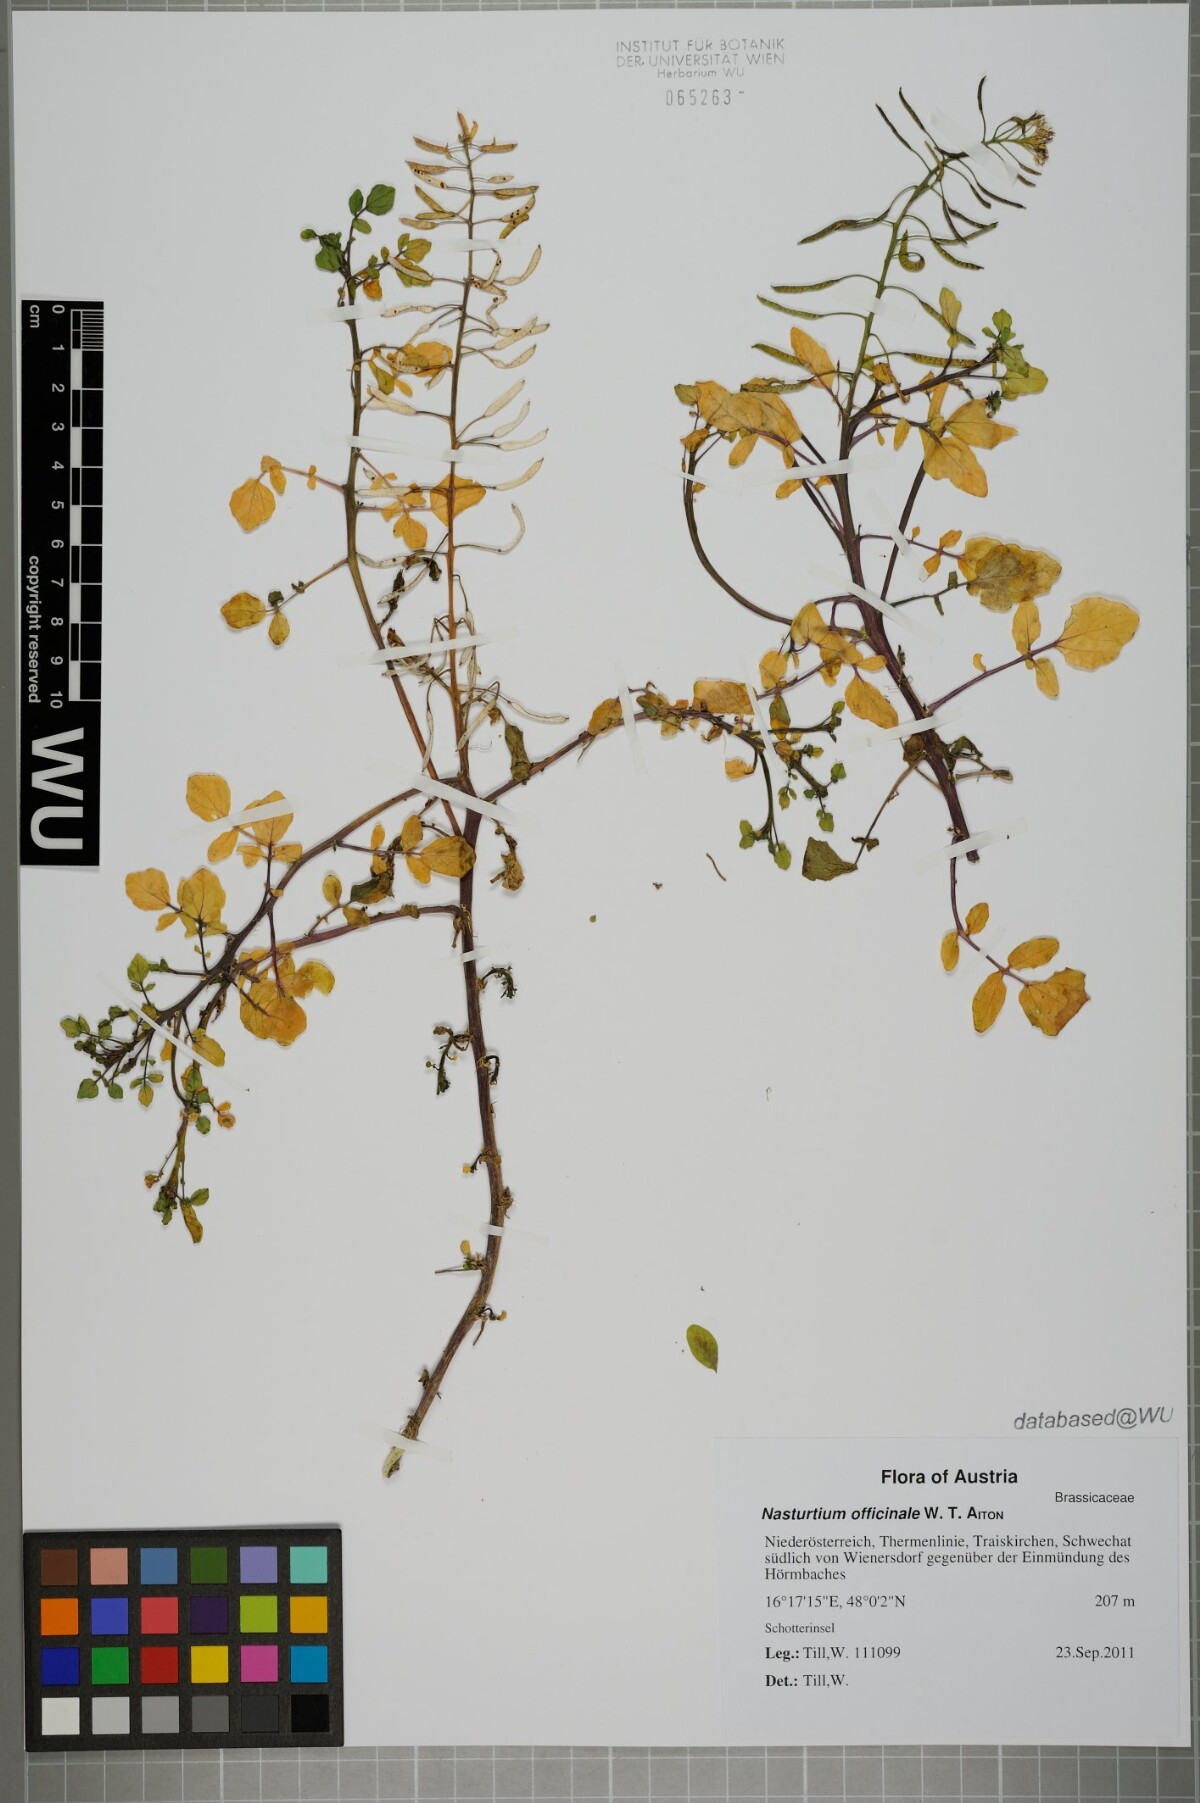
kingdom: Plantae
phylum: Tracheophyta
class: Magnoliopsida
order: Brassicales
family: Brassicaceae
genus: Nasturtium
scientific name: Nasturtium officinale
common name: Watercress
